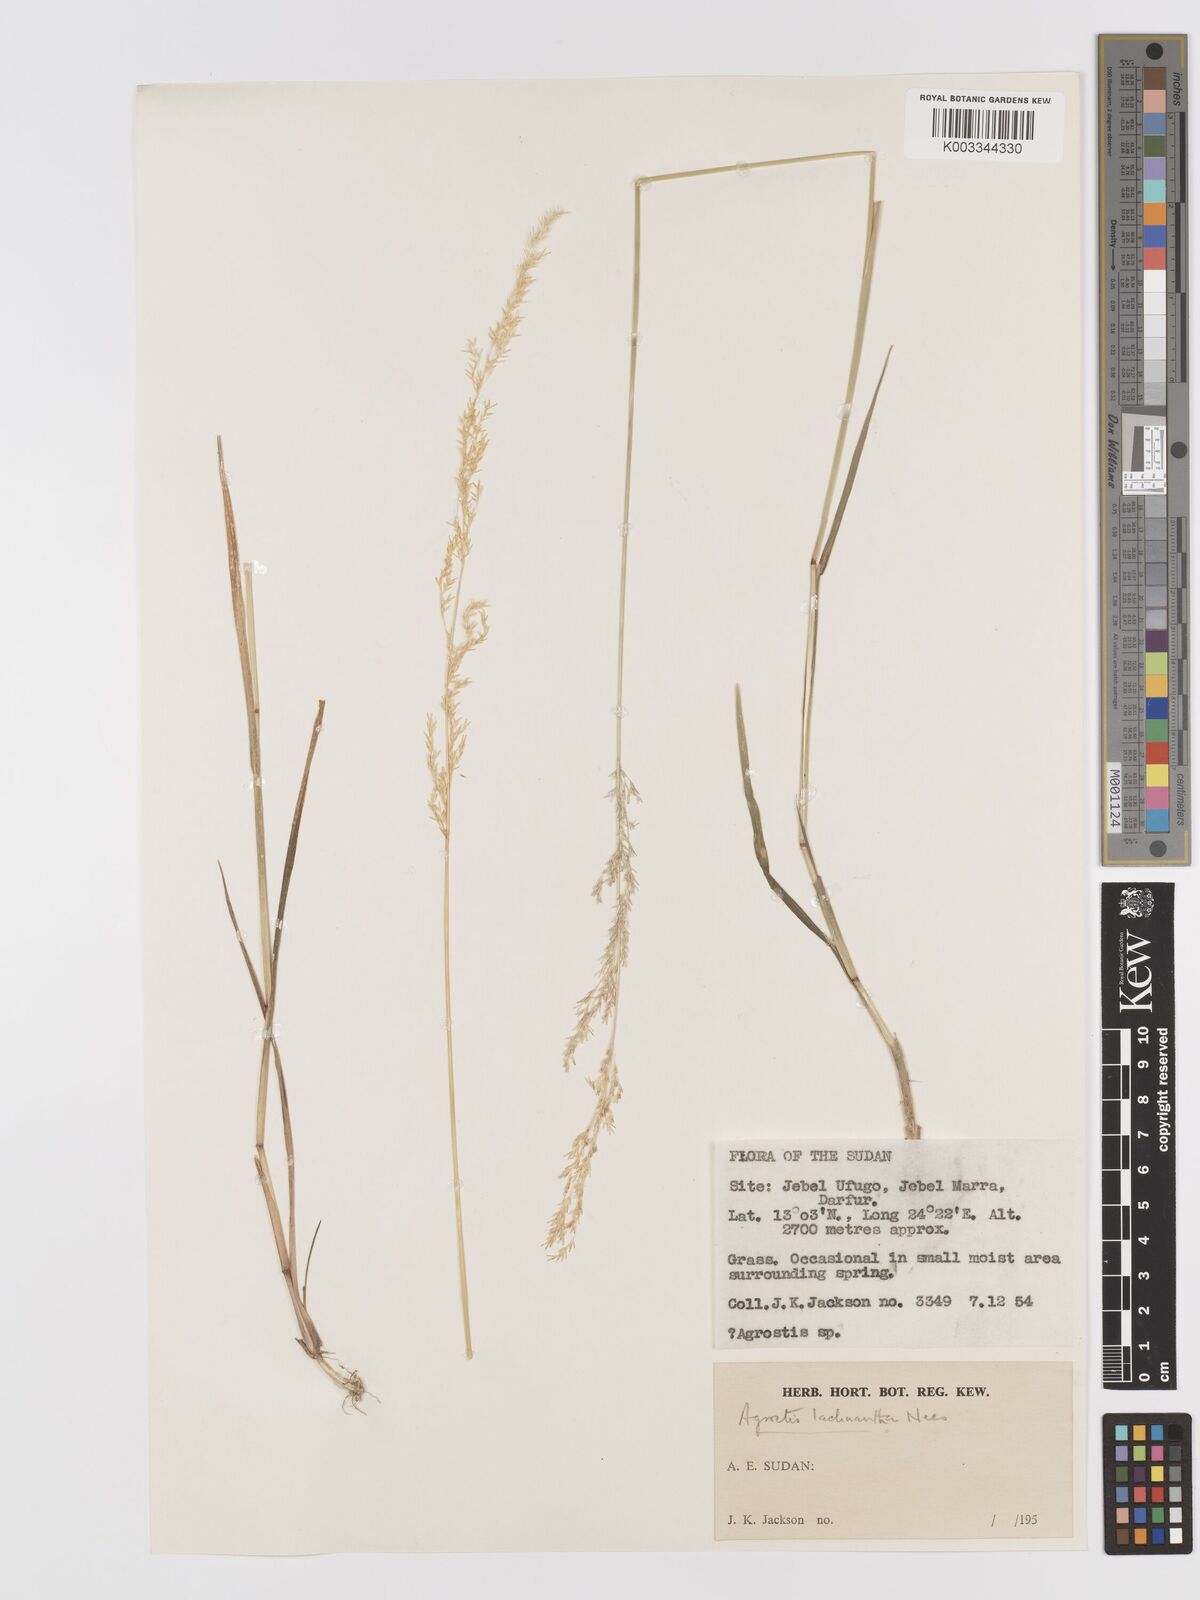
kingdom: Plantae
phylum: Tracheophyta
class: Liliopsida
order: Poales
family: Poaceae
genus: Lachnagrostis
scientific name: Lachnagrostis lachnantha
